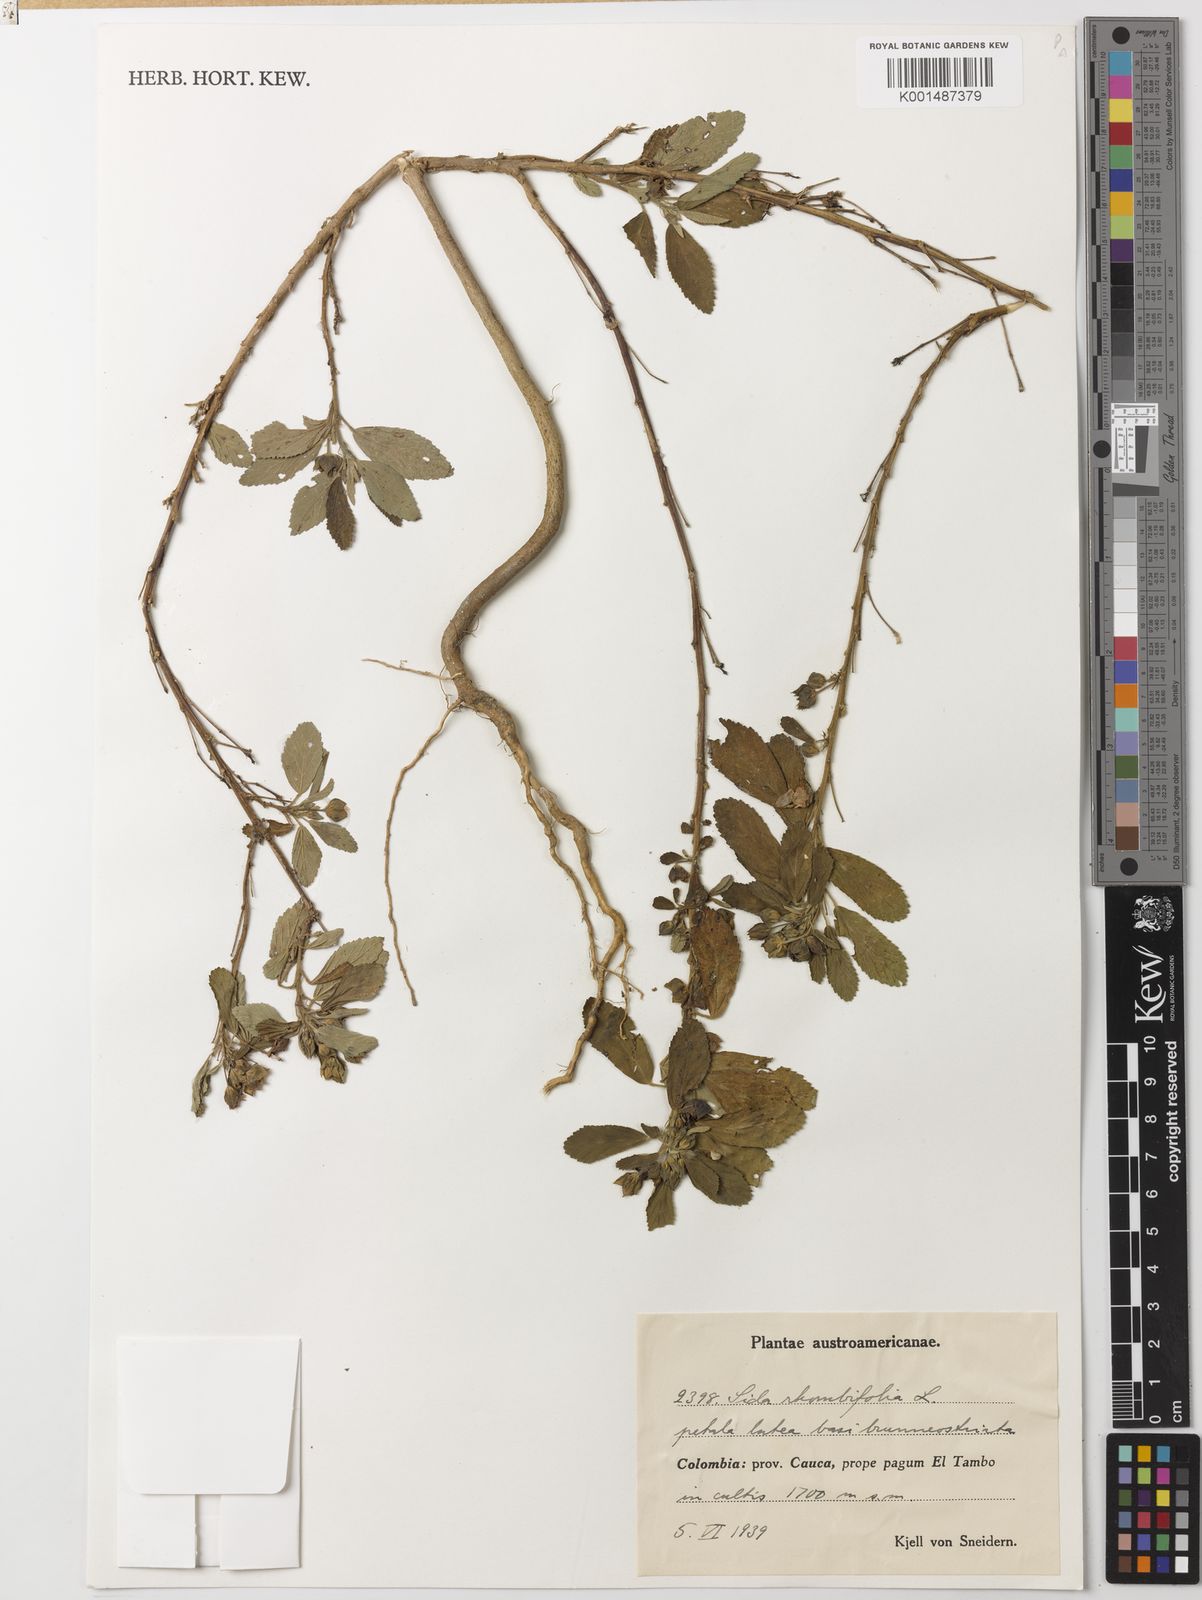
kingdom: Plantae
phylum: Tracheophyta
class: Magnoliopsida
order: Malvales
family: Malvaceae
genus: Sida
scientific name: Sida rhombifolia
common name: Queensland-hemp
